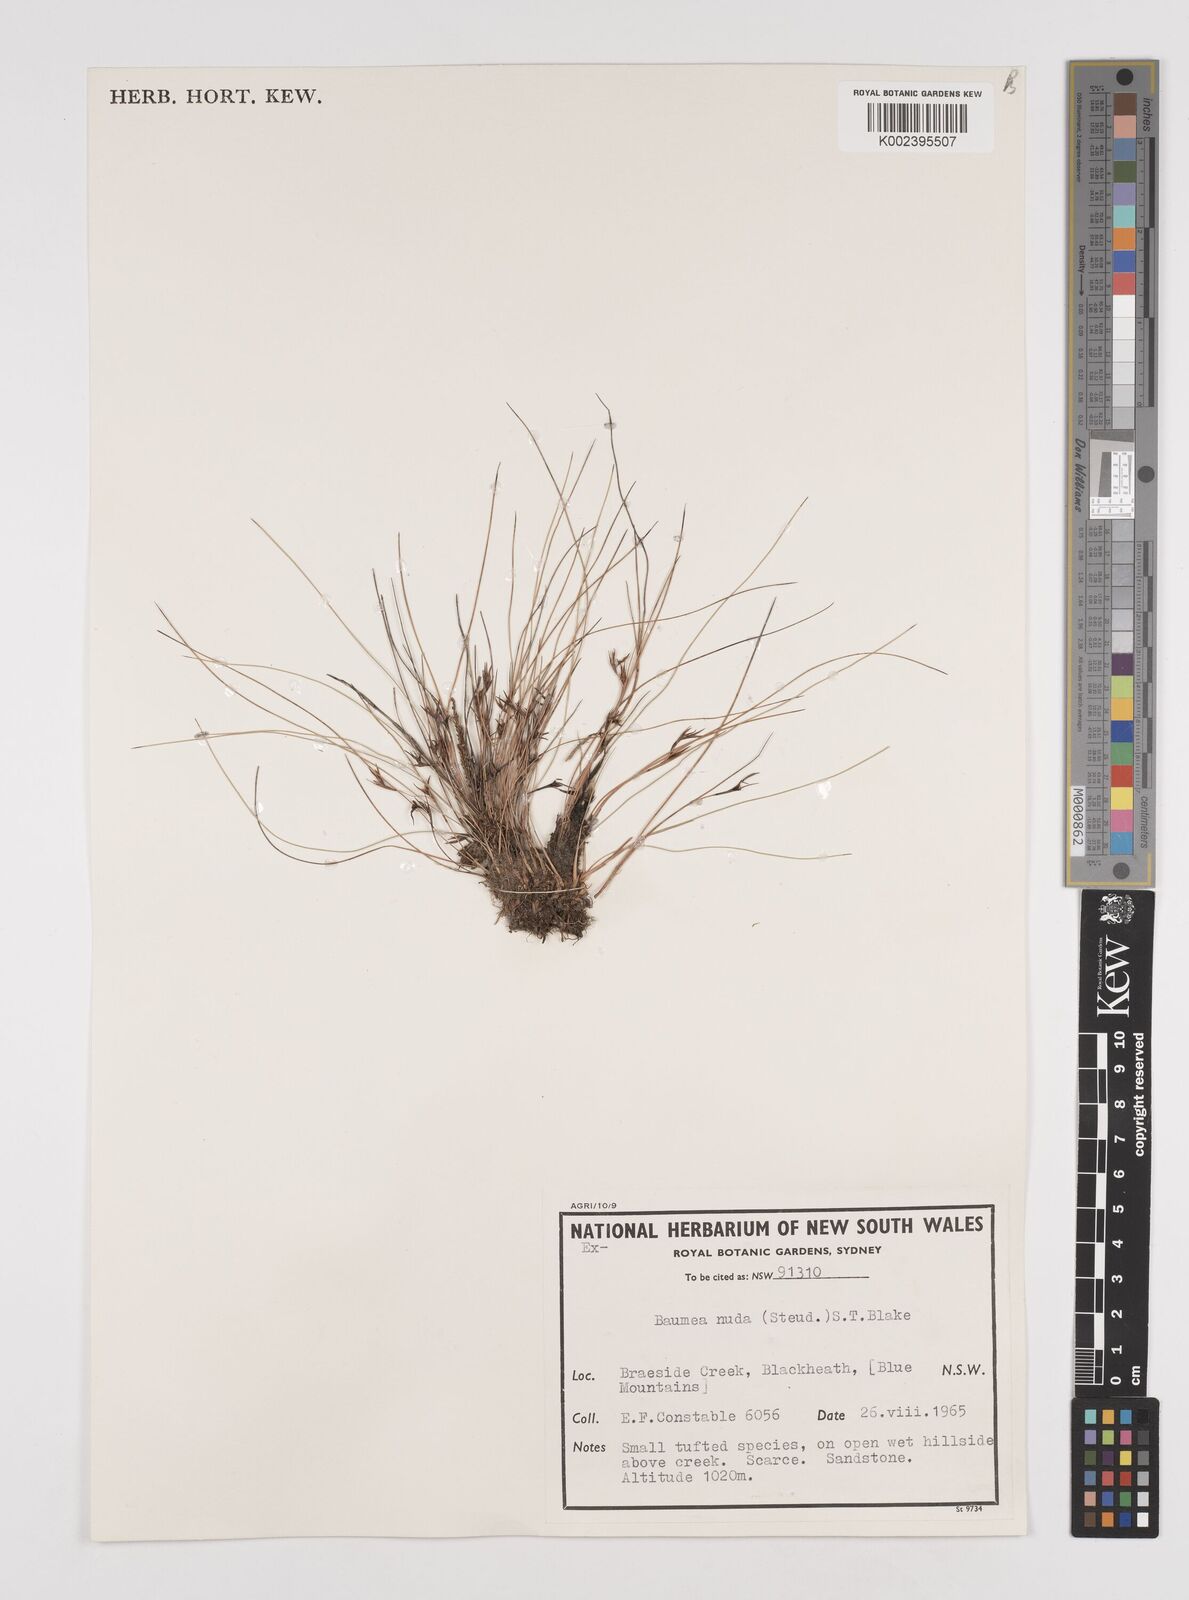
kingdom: Plantae
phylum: Tracheophyta
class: Liliopsida
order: Poales
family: Cyperaceae
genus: Machaerina
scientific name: Machaerina nuda
